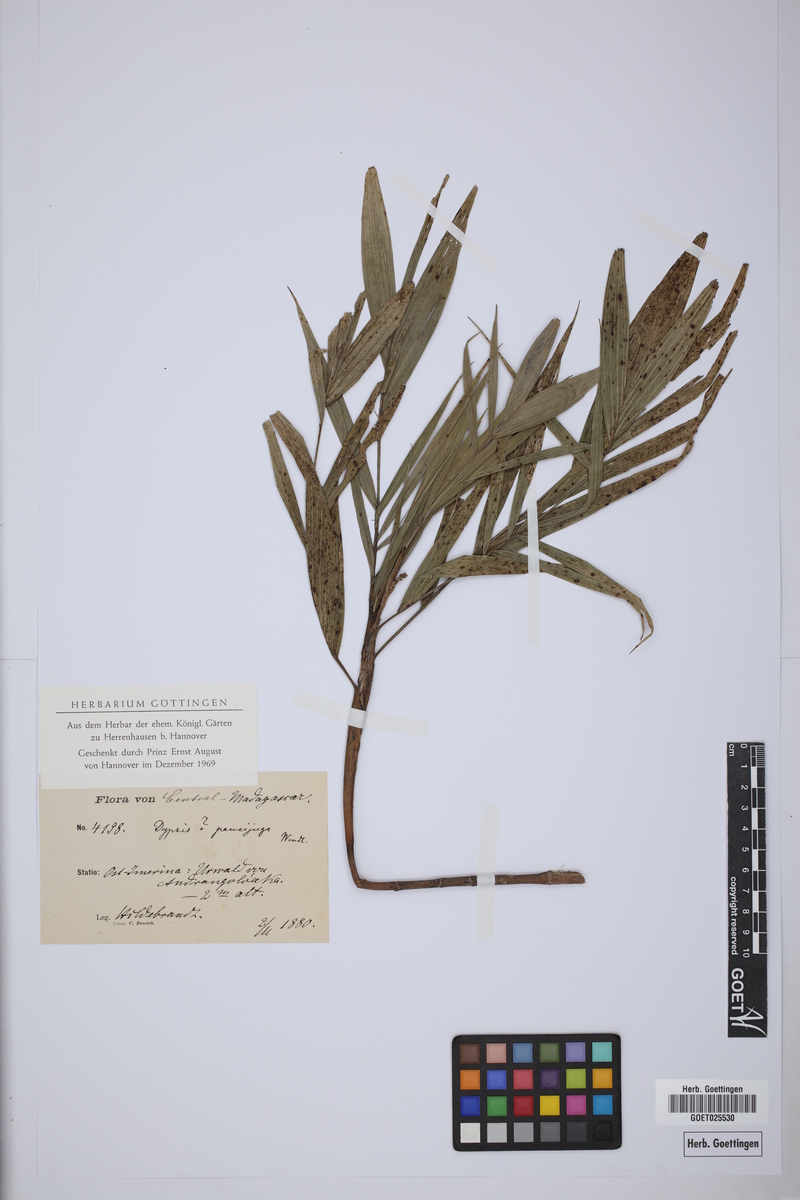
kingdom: Plantae
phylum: Tracheophyta
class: Liliopsida
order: Arecales
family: Arecaceae
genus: Dypsis
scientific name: Dypsis
